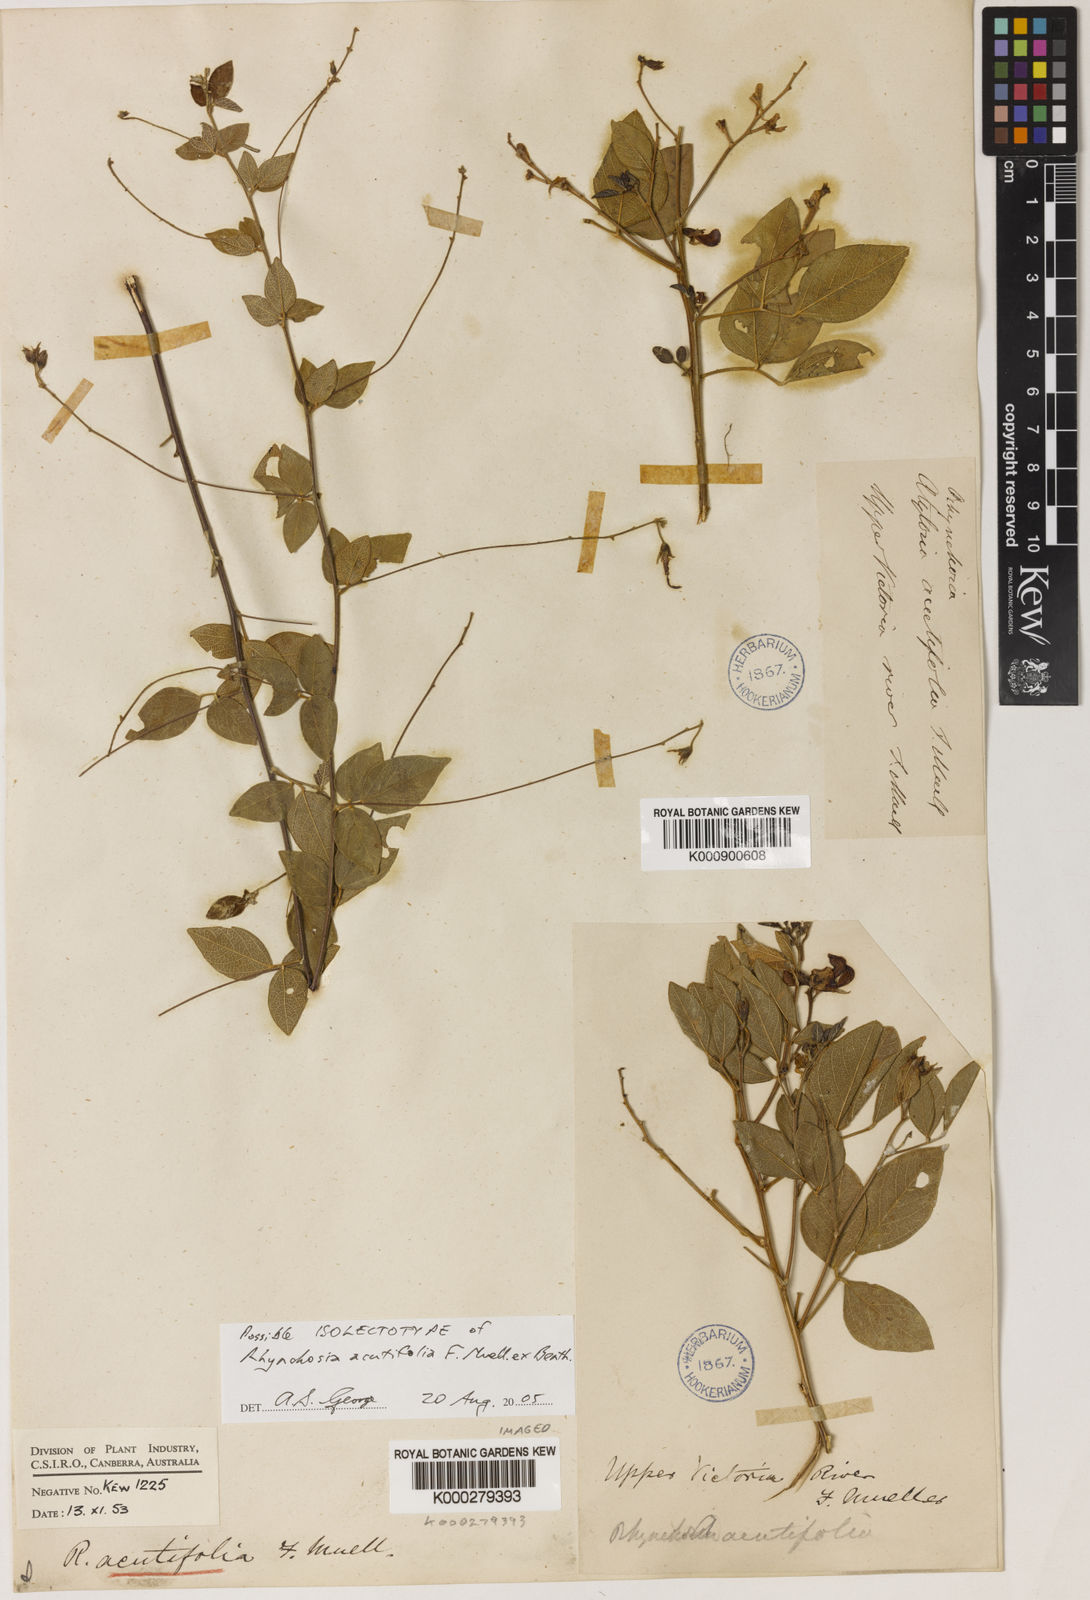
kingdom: Plantae
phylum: Tracheophyta
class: Magnoliopsida
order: Fabales
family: Fabaceae
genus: Cajanus
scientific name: Cajanus acutifolius
